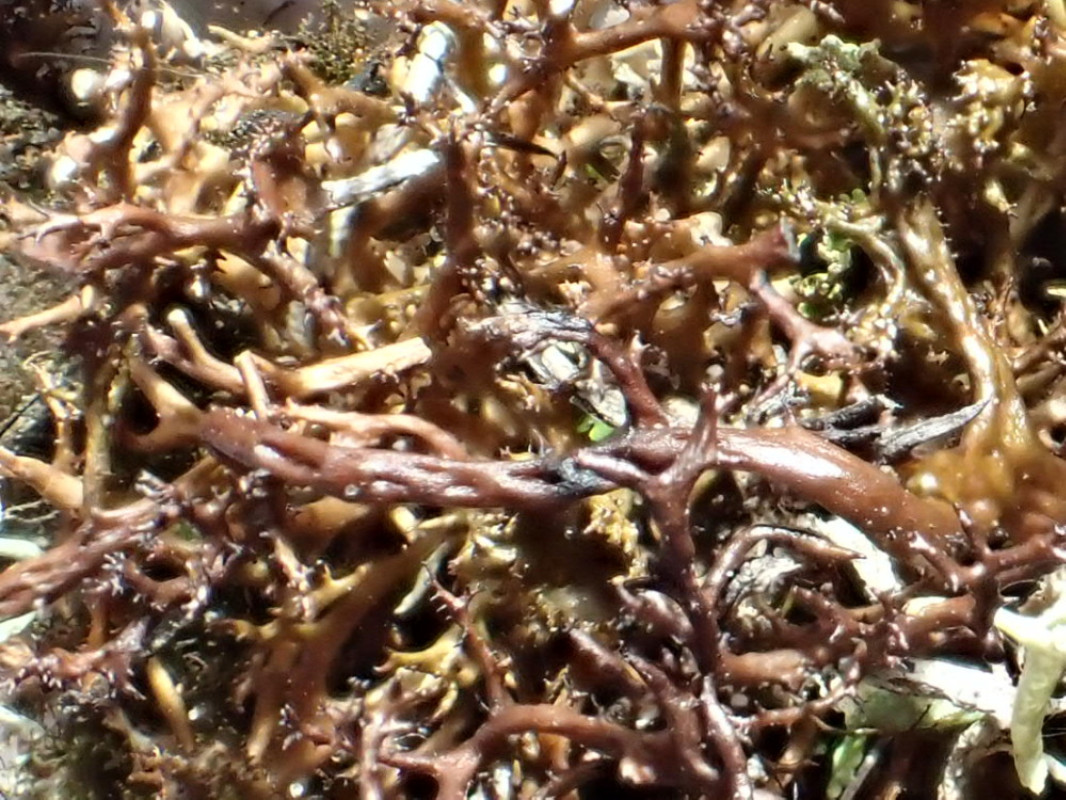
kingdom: Fungi
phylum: Ascomycota
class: Lecanoromycetes
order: Lecanorales
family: Parmeliaceae
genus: Cetraria
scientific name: Cetraria aculeata
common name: grubet tjørnelav
